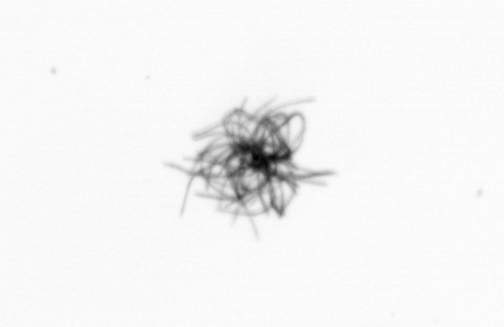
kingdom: Bacteria
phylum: Cyanobacteria
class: Cyanobacteriia
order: Cyanobacteriales
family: Microcoleaceae
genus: Trichodesmium
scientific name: Trichodesmium
